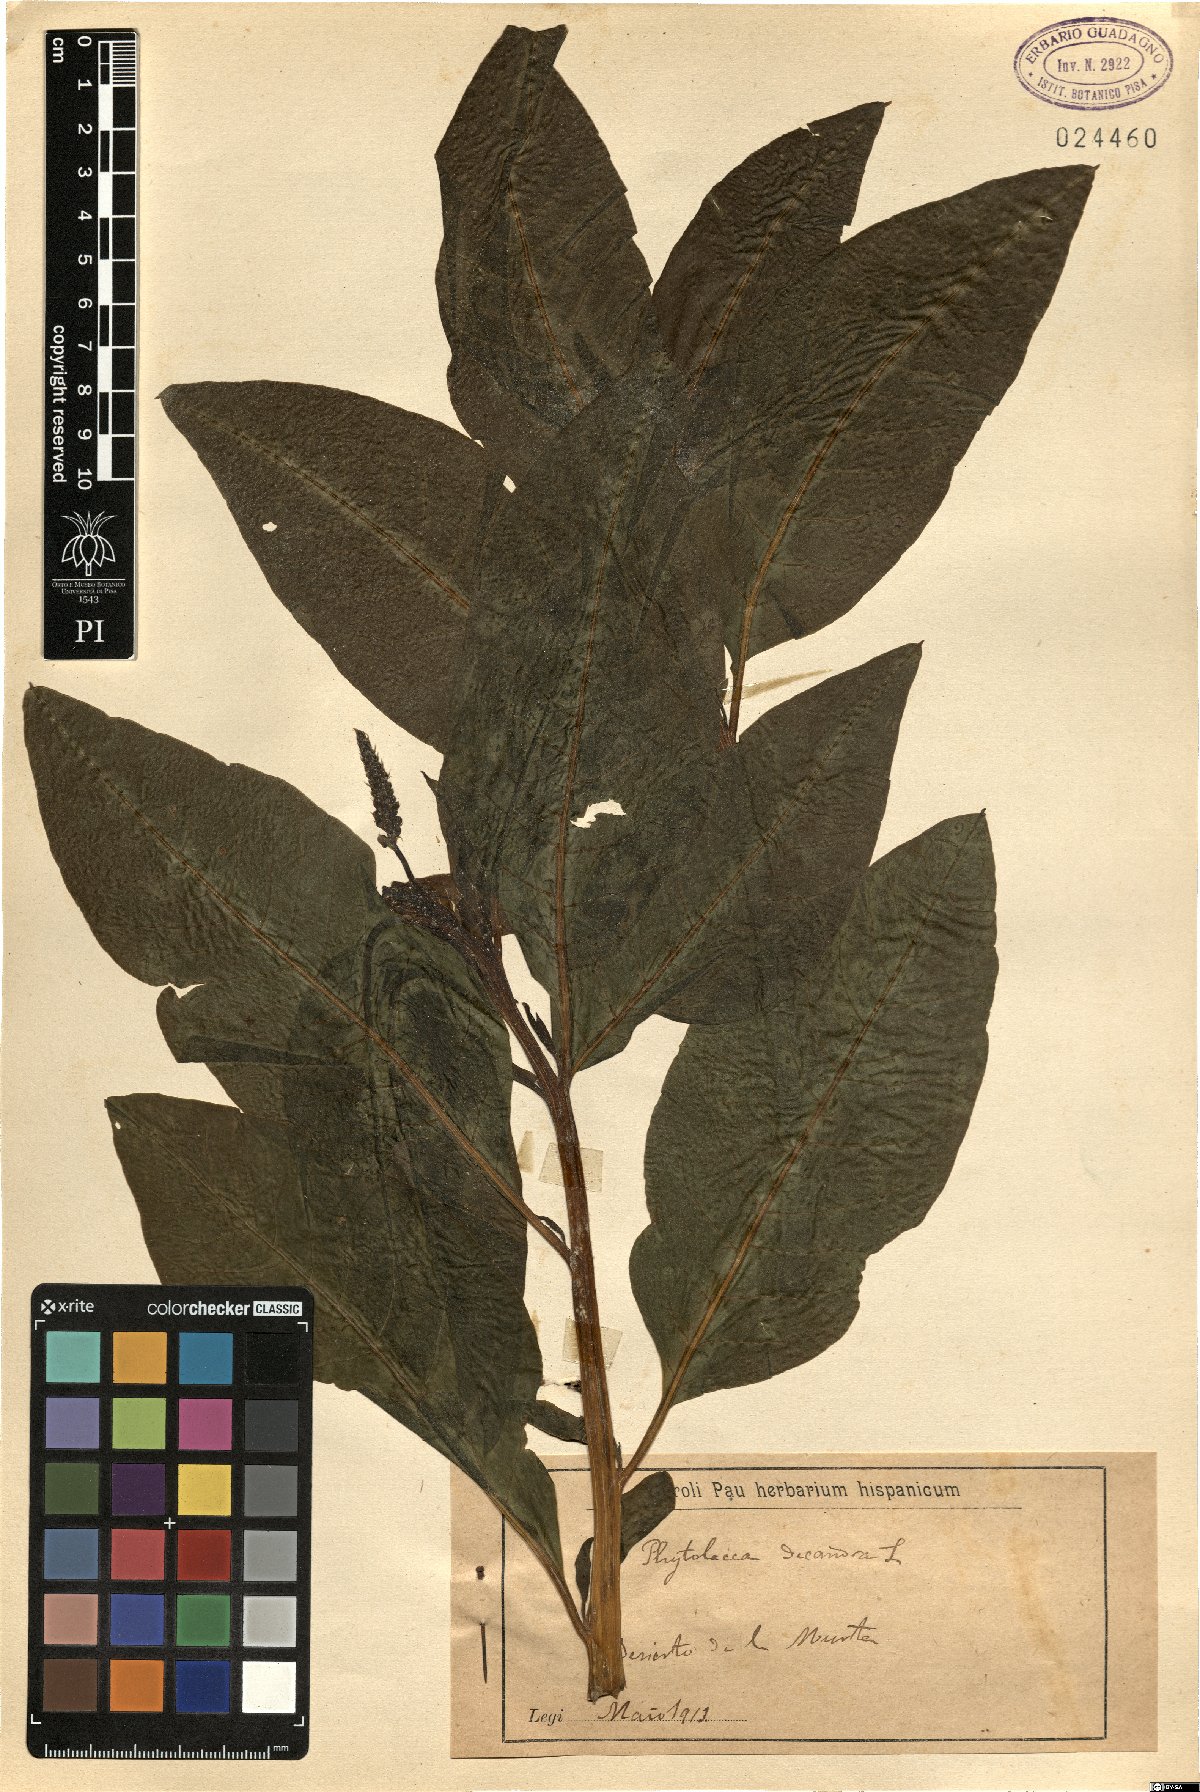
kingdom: Plantae
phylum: Tracheophyta
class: Magnoliopsida
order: Caryophyllales
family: Phytolaccaceae
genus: Phytolacca
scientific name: Phytolacca americana
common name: American pokeweed
